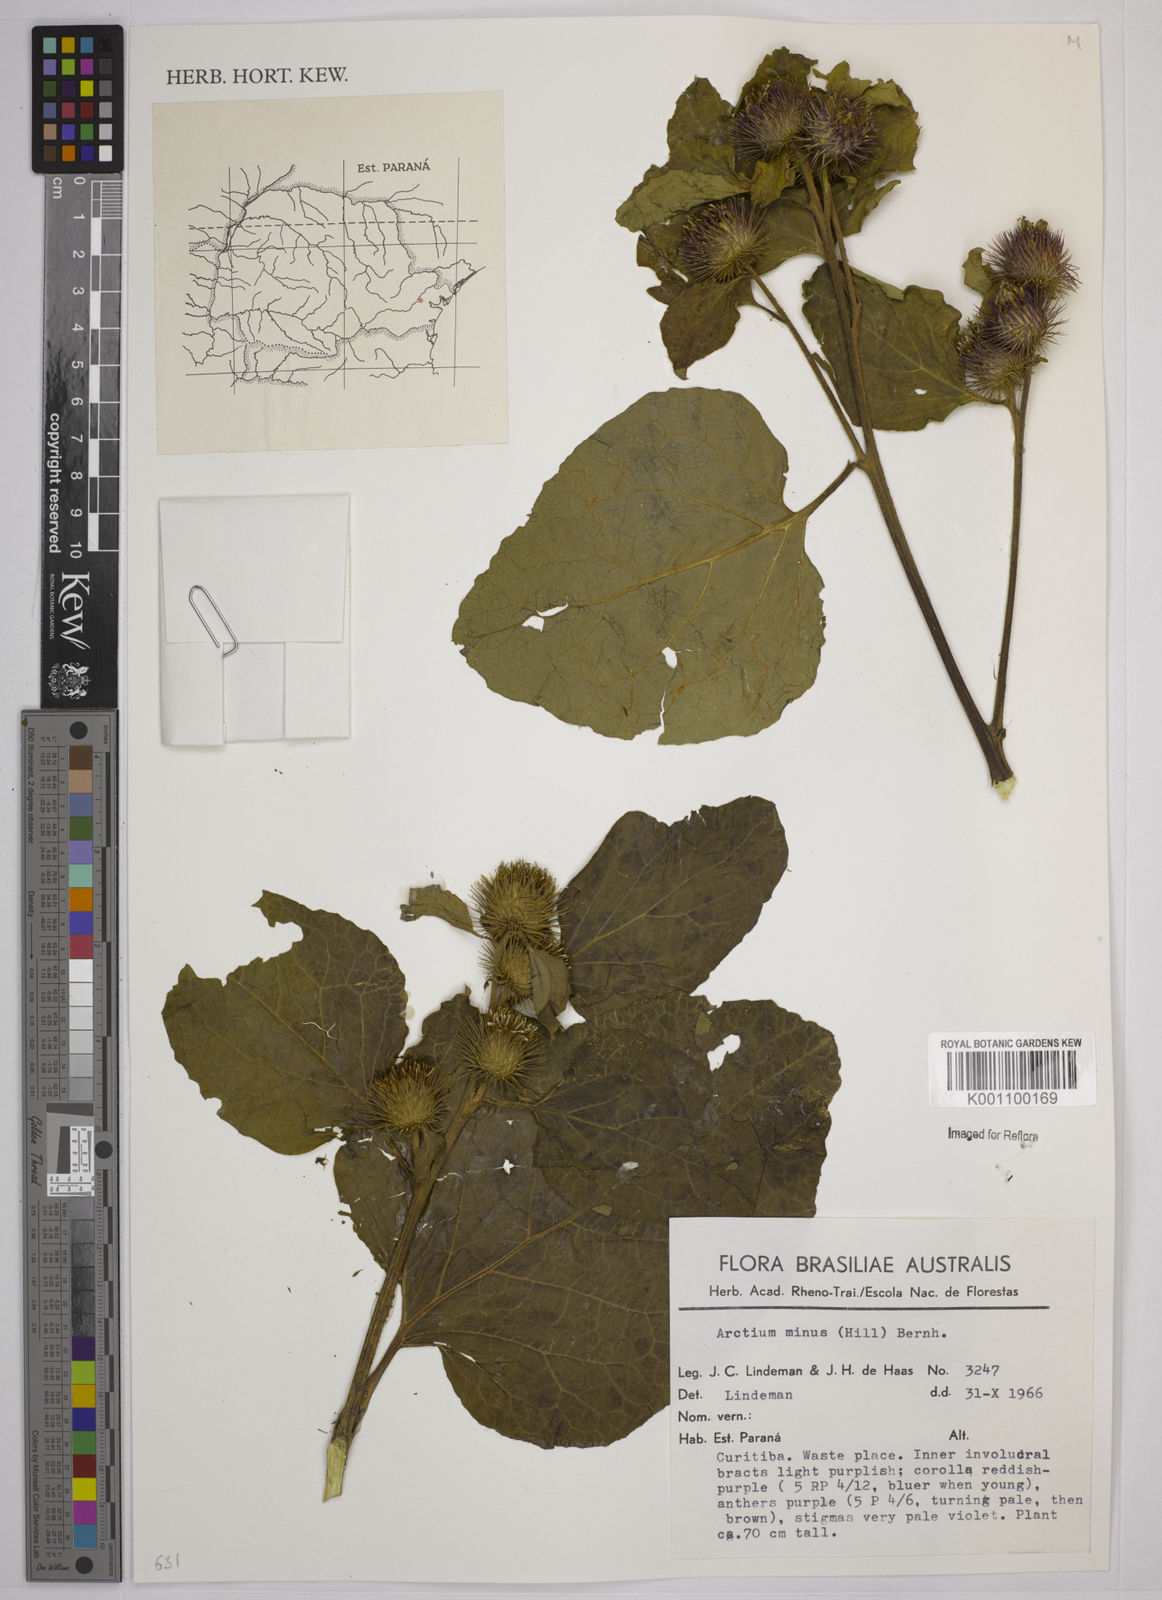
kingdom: Plantae
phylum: Tracheophyta
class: Magnoliopsida
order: Asterales
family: Asteraceae
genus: Arctium
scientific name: Arctium minus
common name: Lesser burdock
